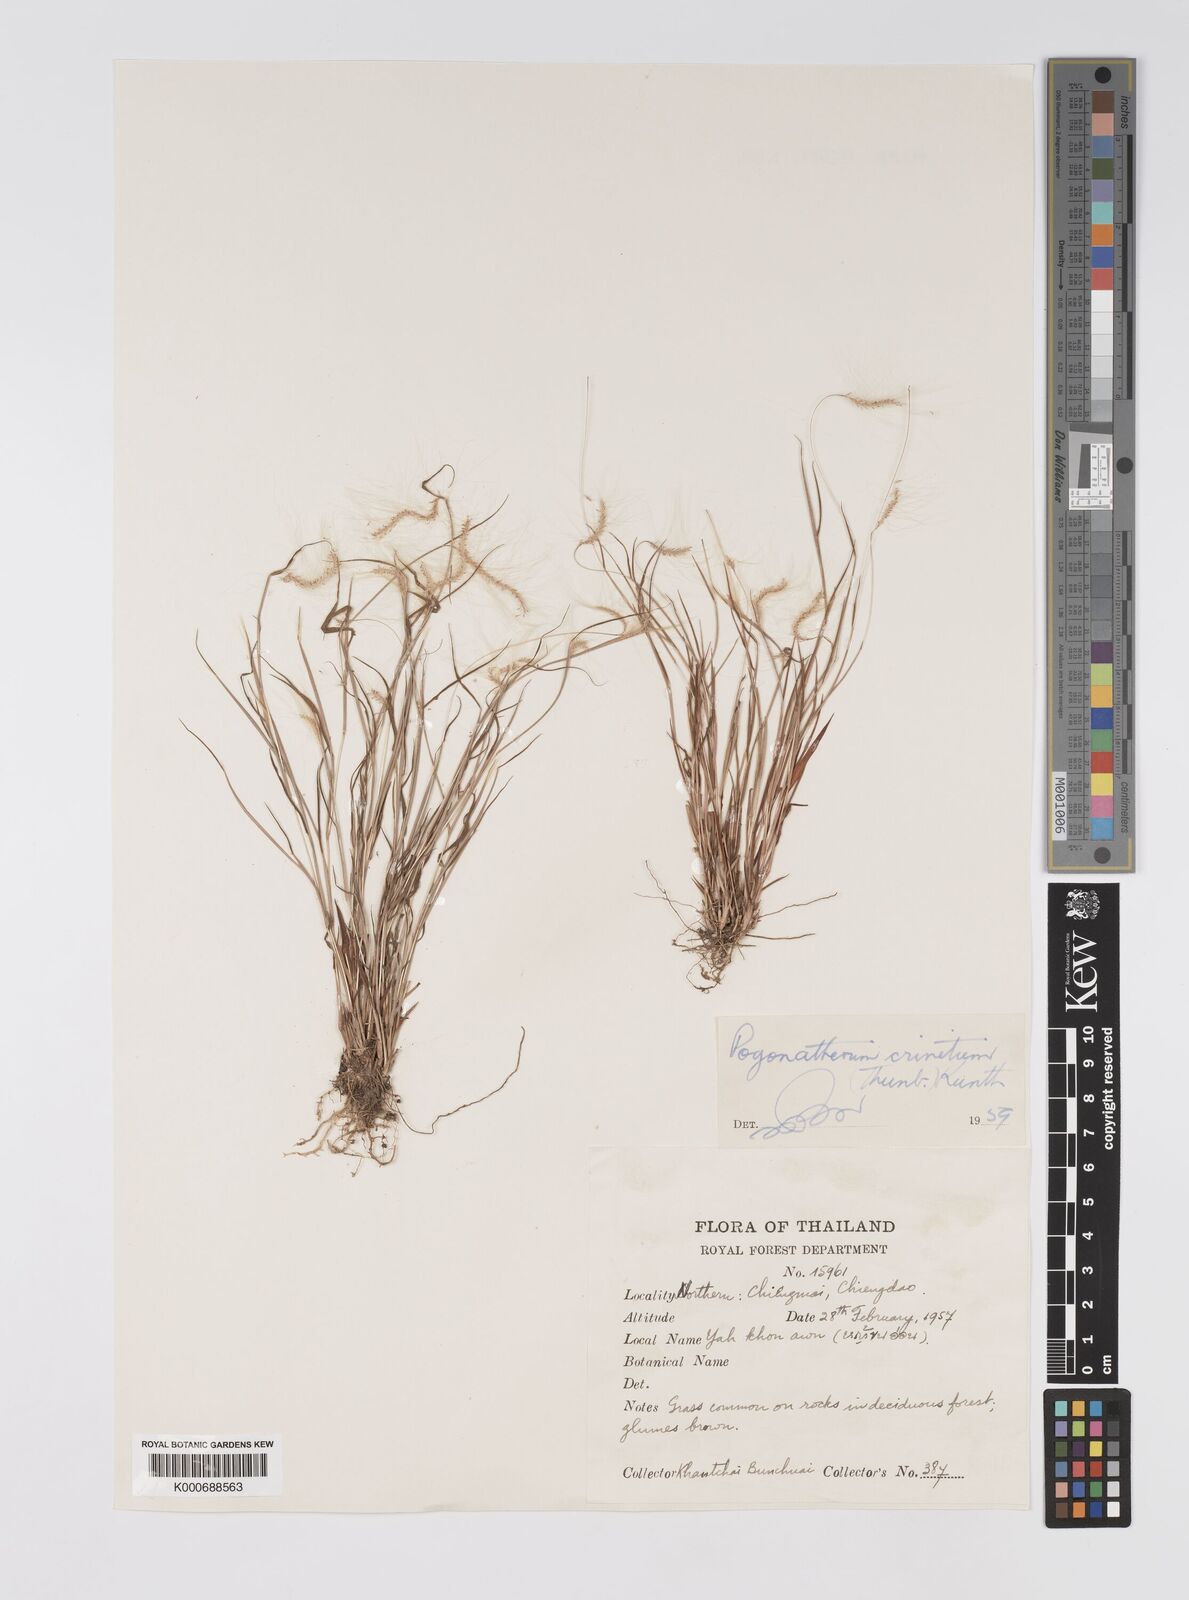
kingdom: Plantae
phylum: Tracheophyta
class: Liliopsida
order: Poales
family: Poaceae
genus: Pogonatherum
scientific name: Pogonatherum crinitum
